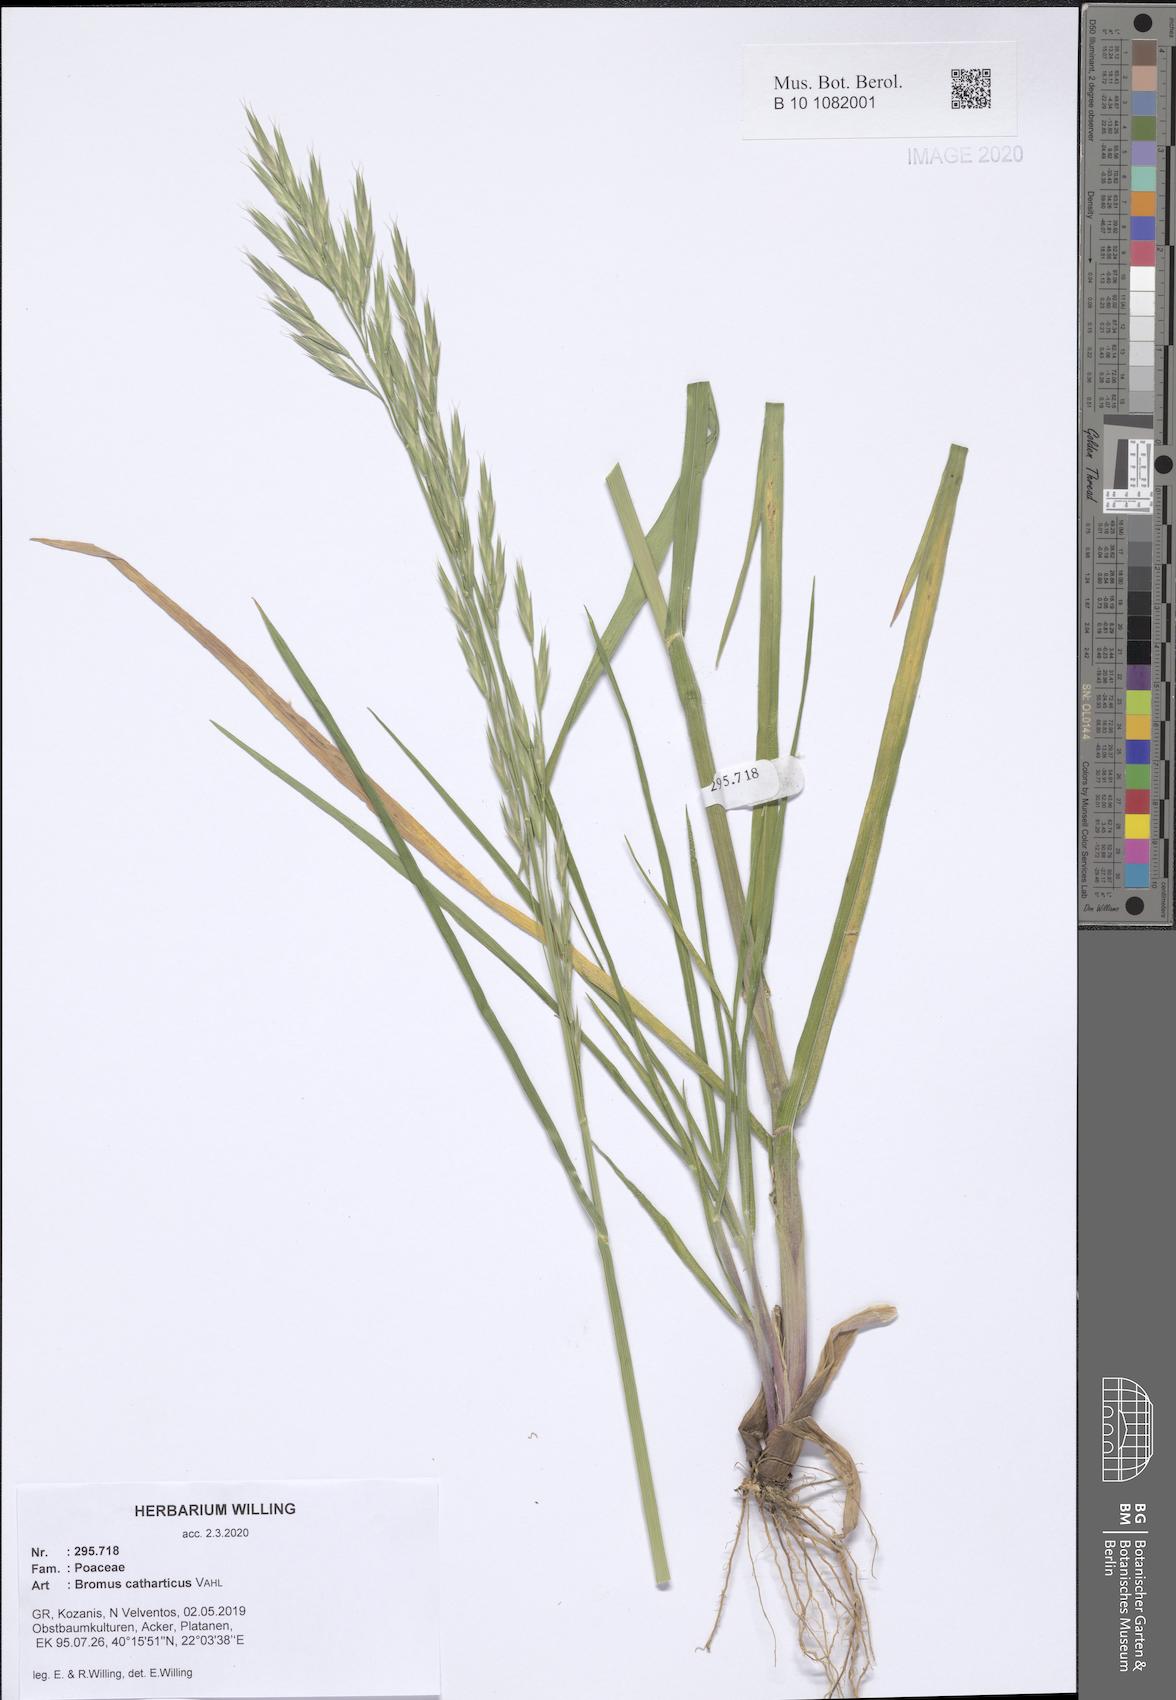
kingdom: Plantae
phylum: Tracheophyta
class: Liliopsida
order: Poales
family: Poaceae
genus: Bromus
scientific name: Bromus catharticus
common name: Rescuegrass
